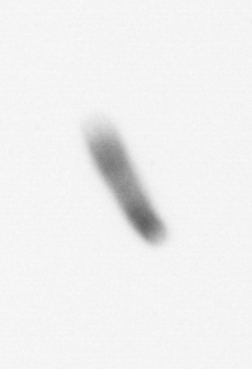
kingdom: Chromista
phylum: Ochrophyta
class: Bacillariophyceae
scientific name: Bacillariophyceae
